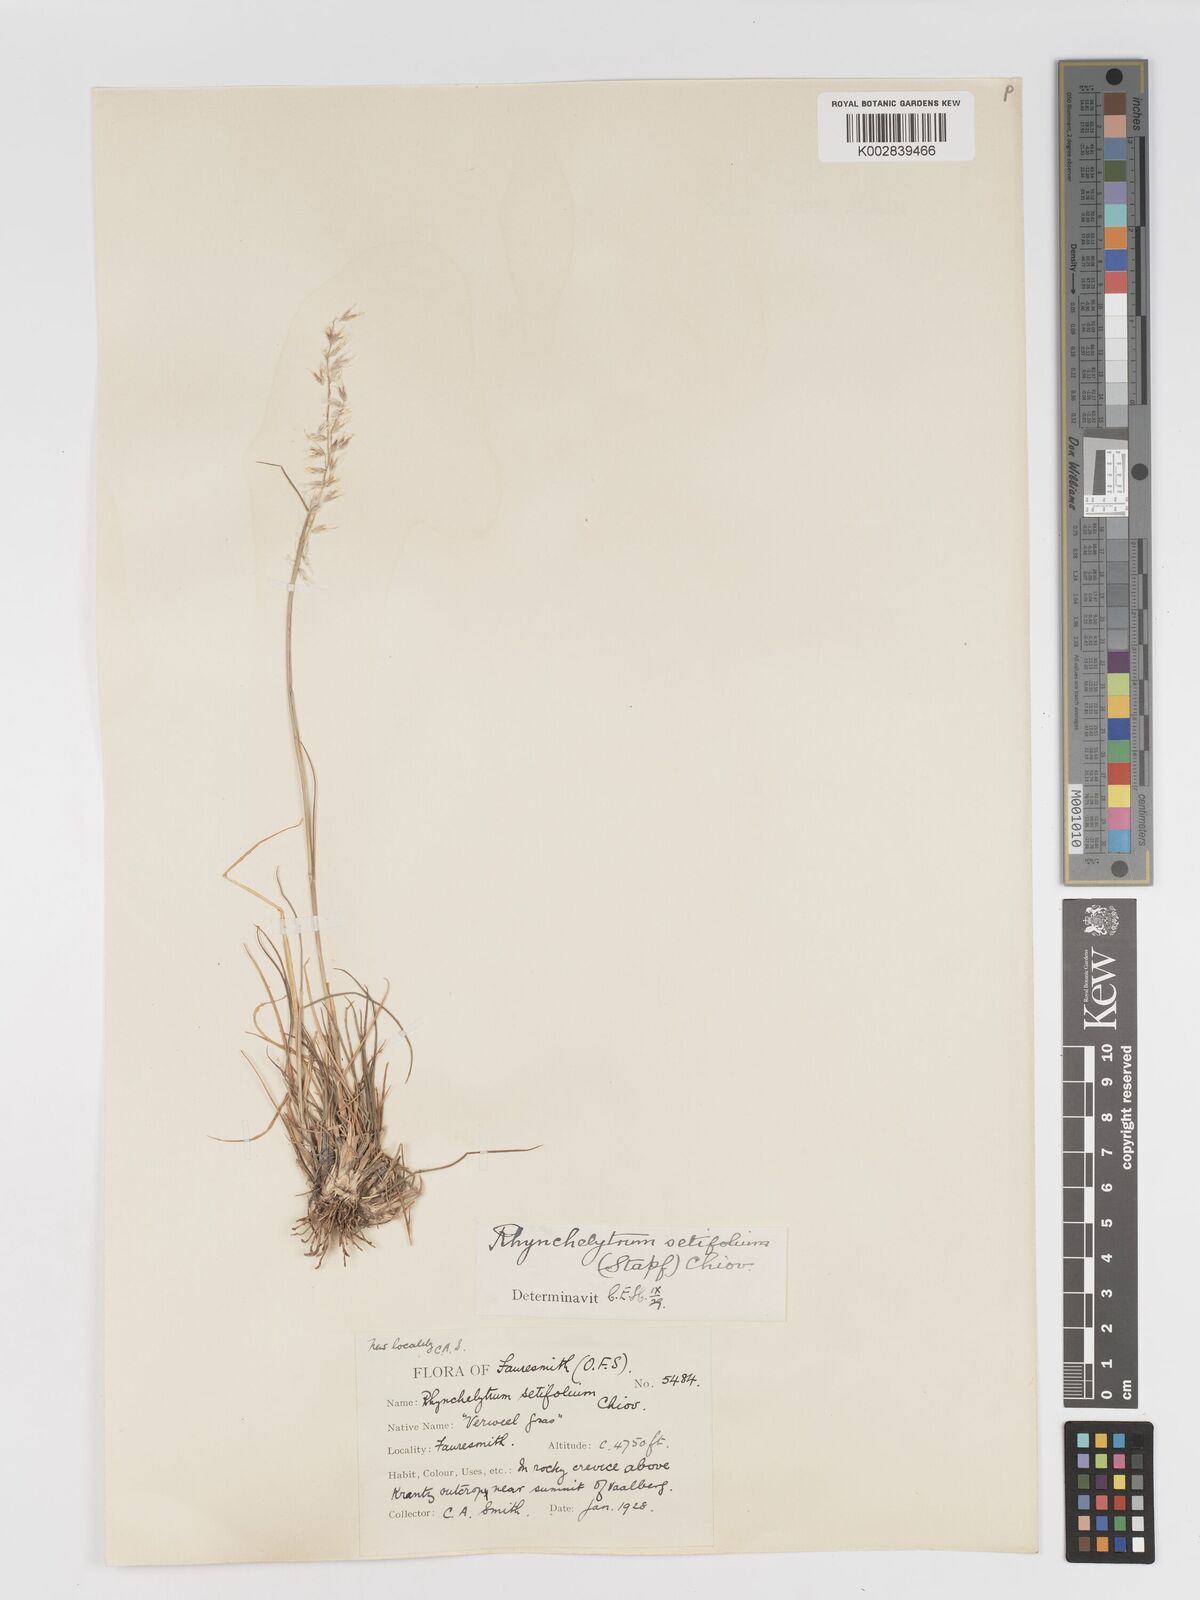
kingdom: Plantae
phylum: Tracheophyta
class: Liliopsida
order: Poales
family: Poaceae
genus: Melinis
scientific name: Melinis nerviglumis
